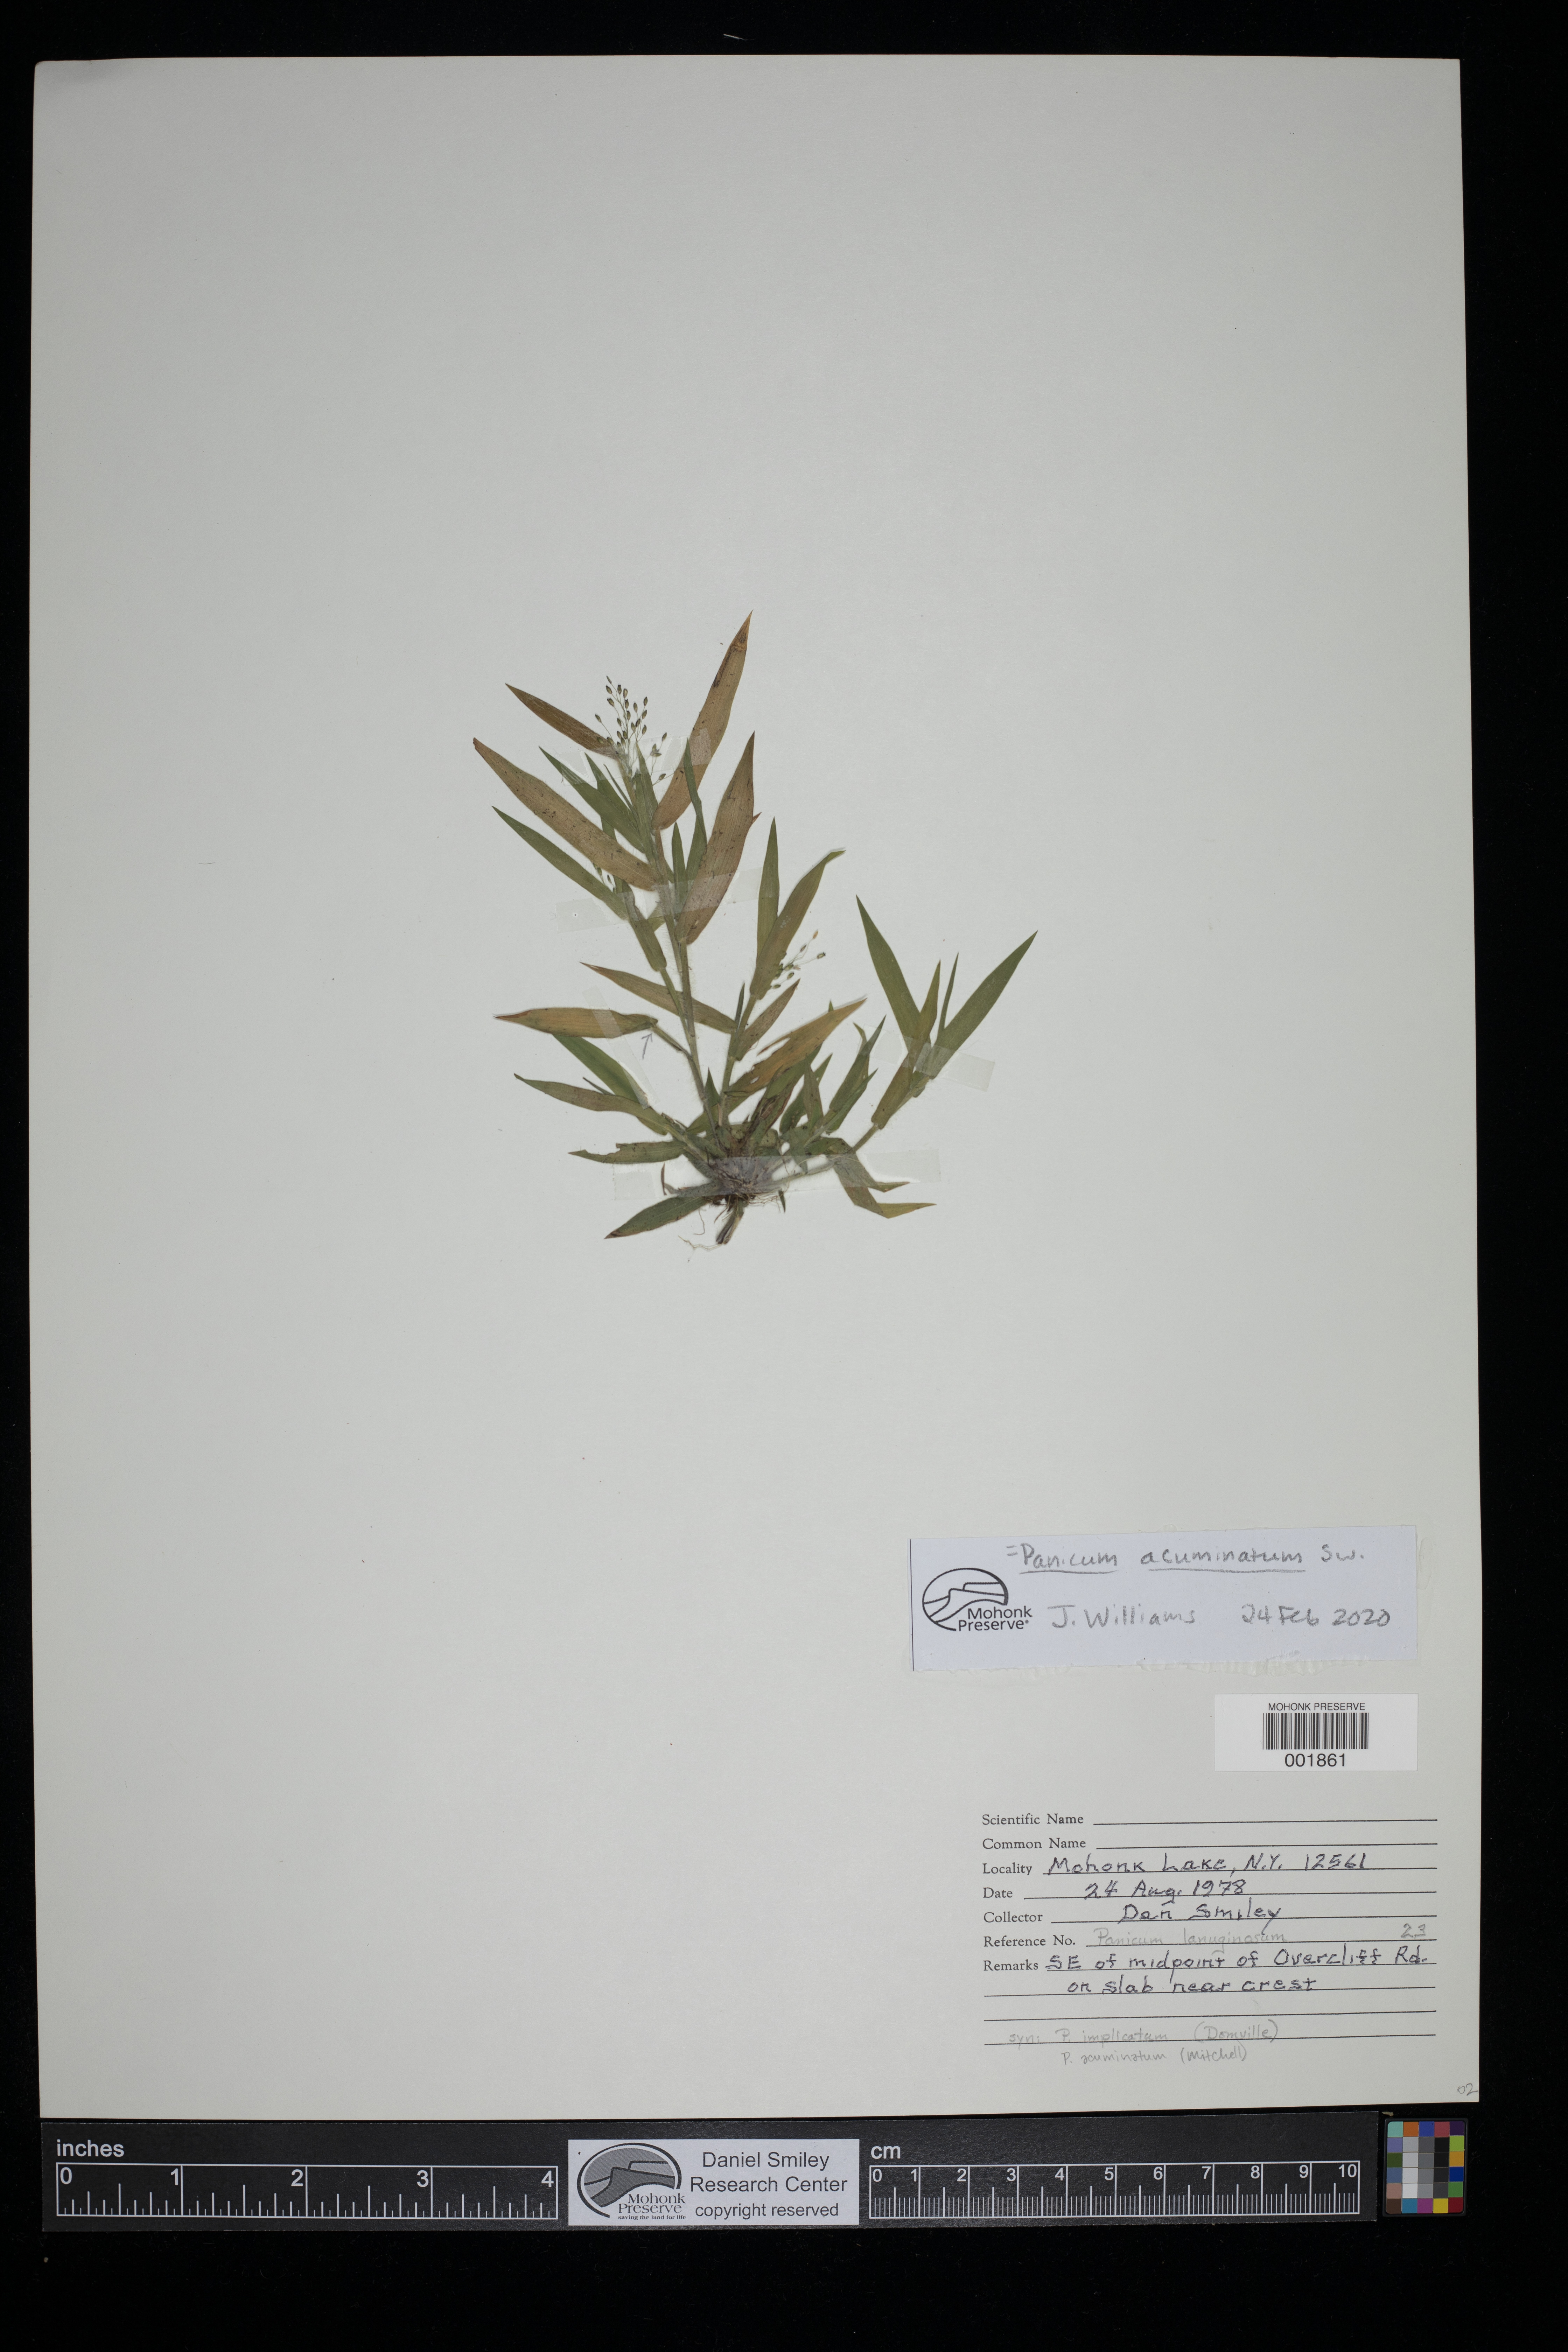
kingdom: Plantae
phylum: Tracheophyta
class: Liliopsida
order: Poales
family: Poaceae
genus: Dichanthelium
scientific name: Dichanthelium acuminatum
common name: Hairy panic grass
